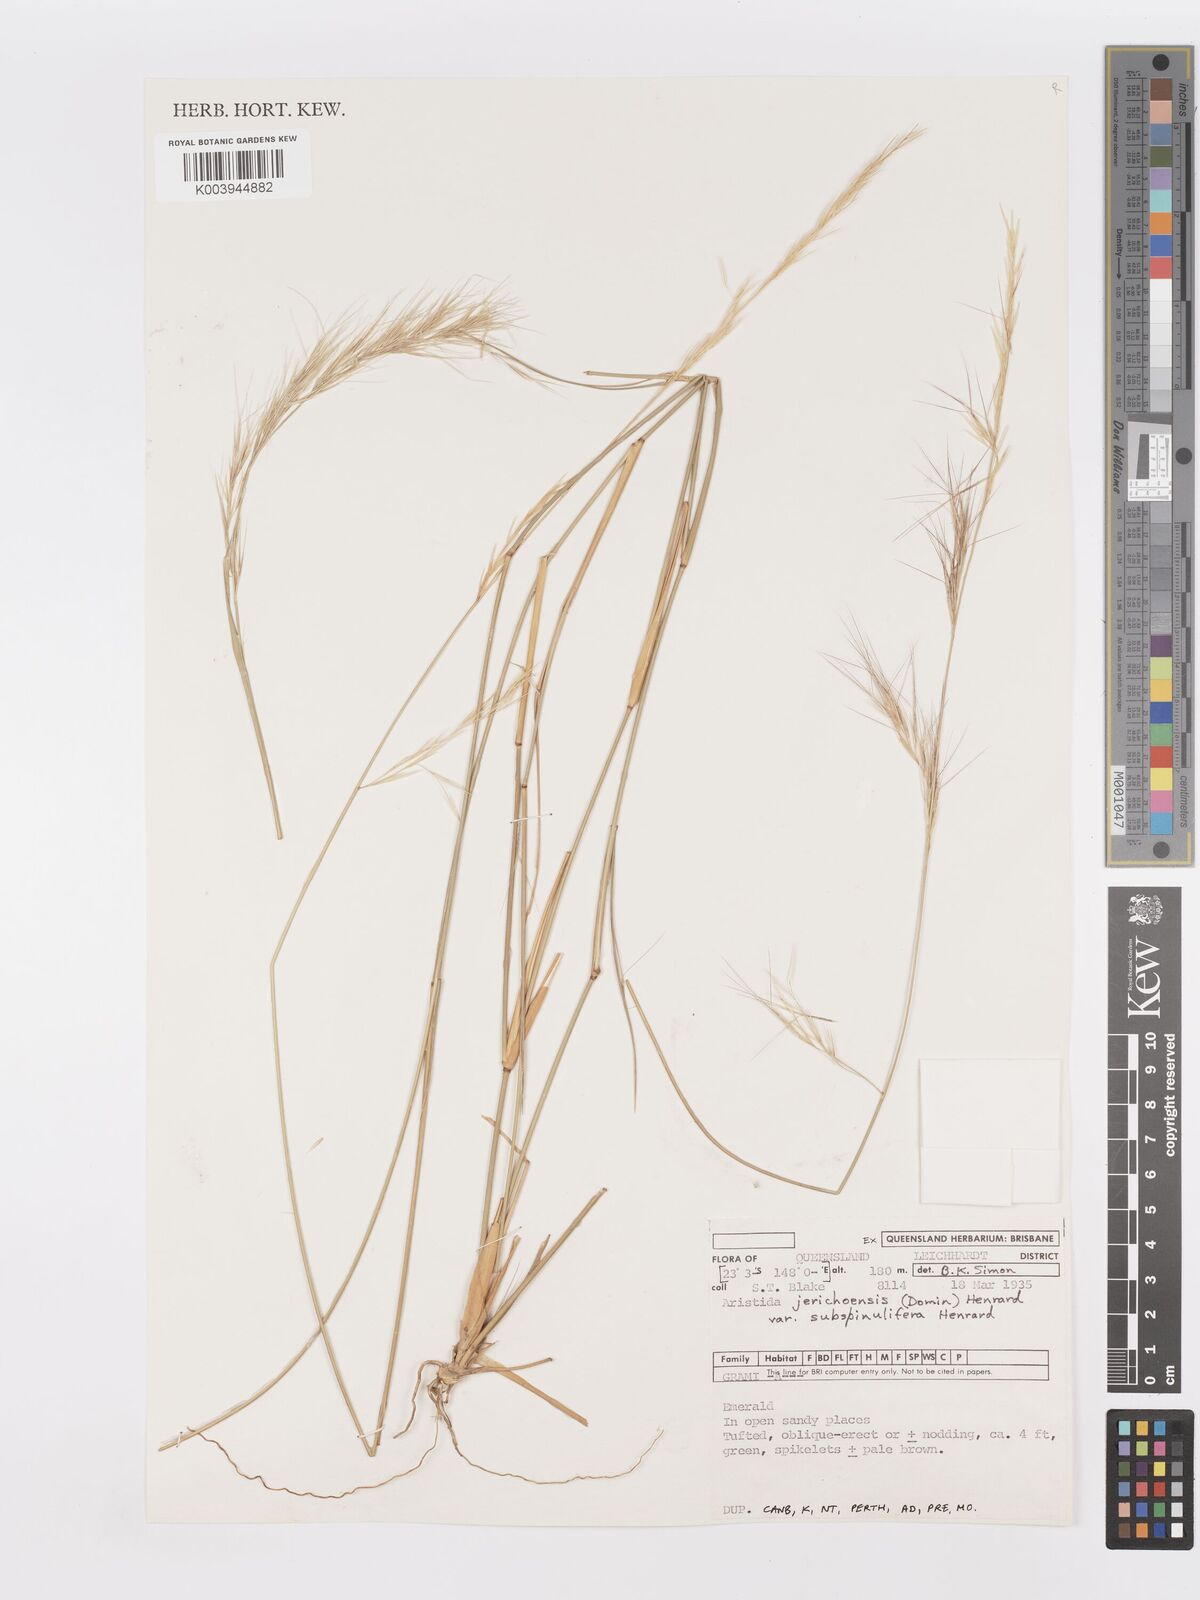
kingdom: Plantae
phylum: Tracheophyta
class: Liliopsida
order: Poales
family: Poaceae
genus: Aristida
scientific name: Aristida jerichoensis
